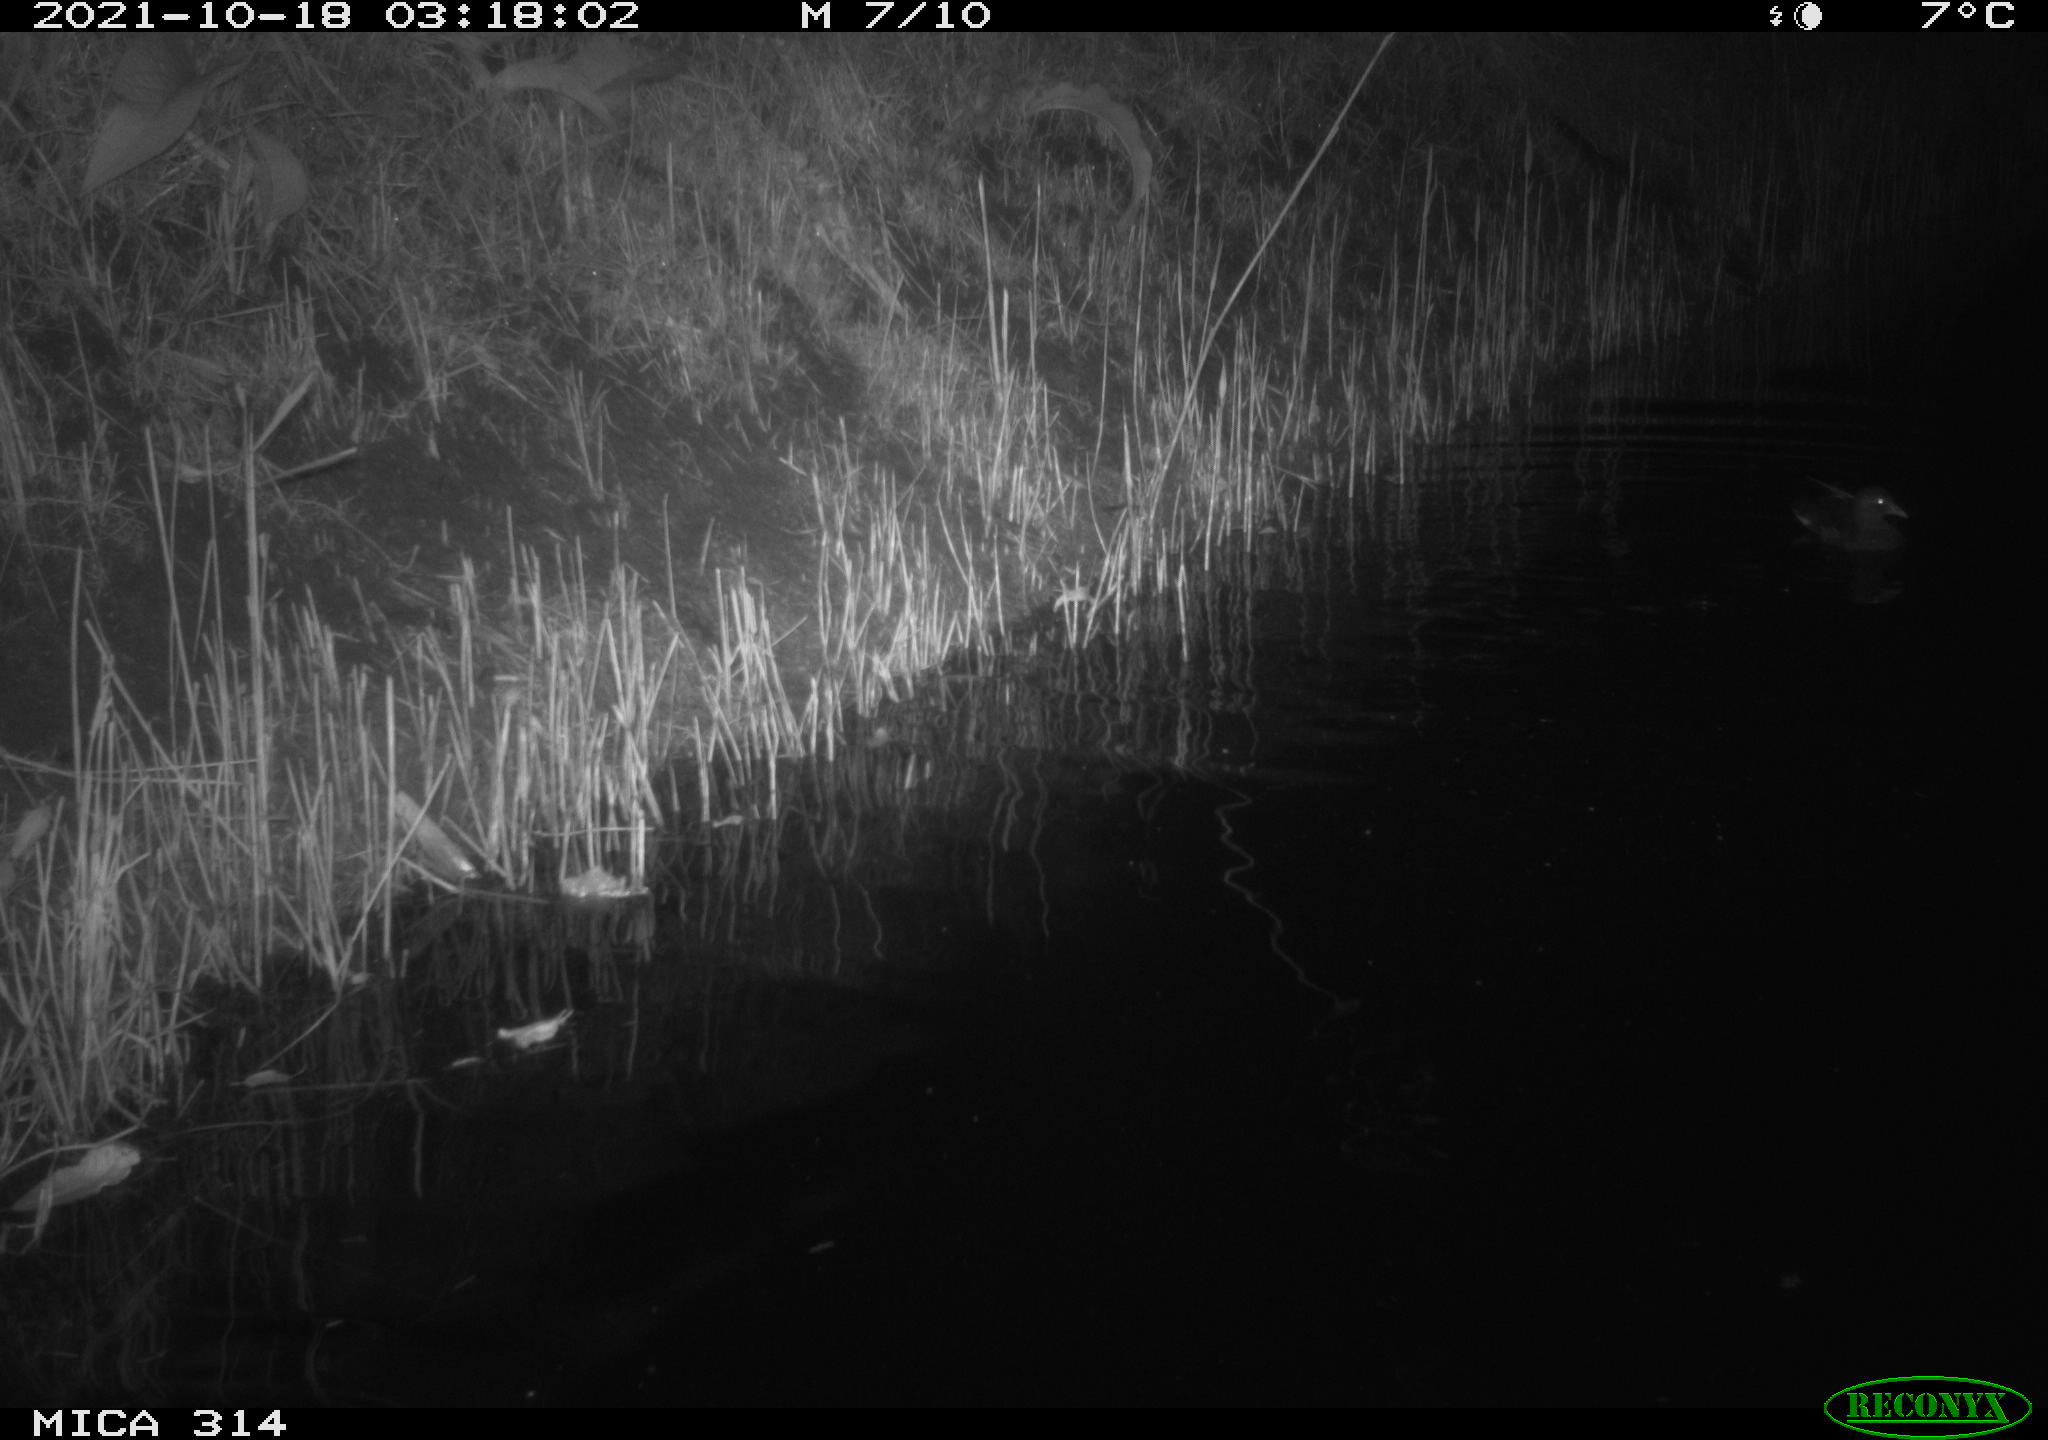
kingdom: Animalia
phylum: Chordata
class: Aves
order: Gruiformes
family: Rallidae
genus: Gallinula
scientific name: Gallinula chloropus
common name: Common moorhen
